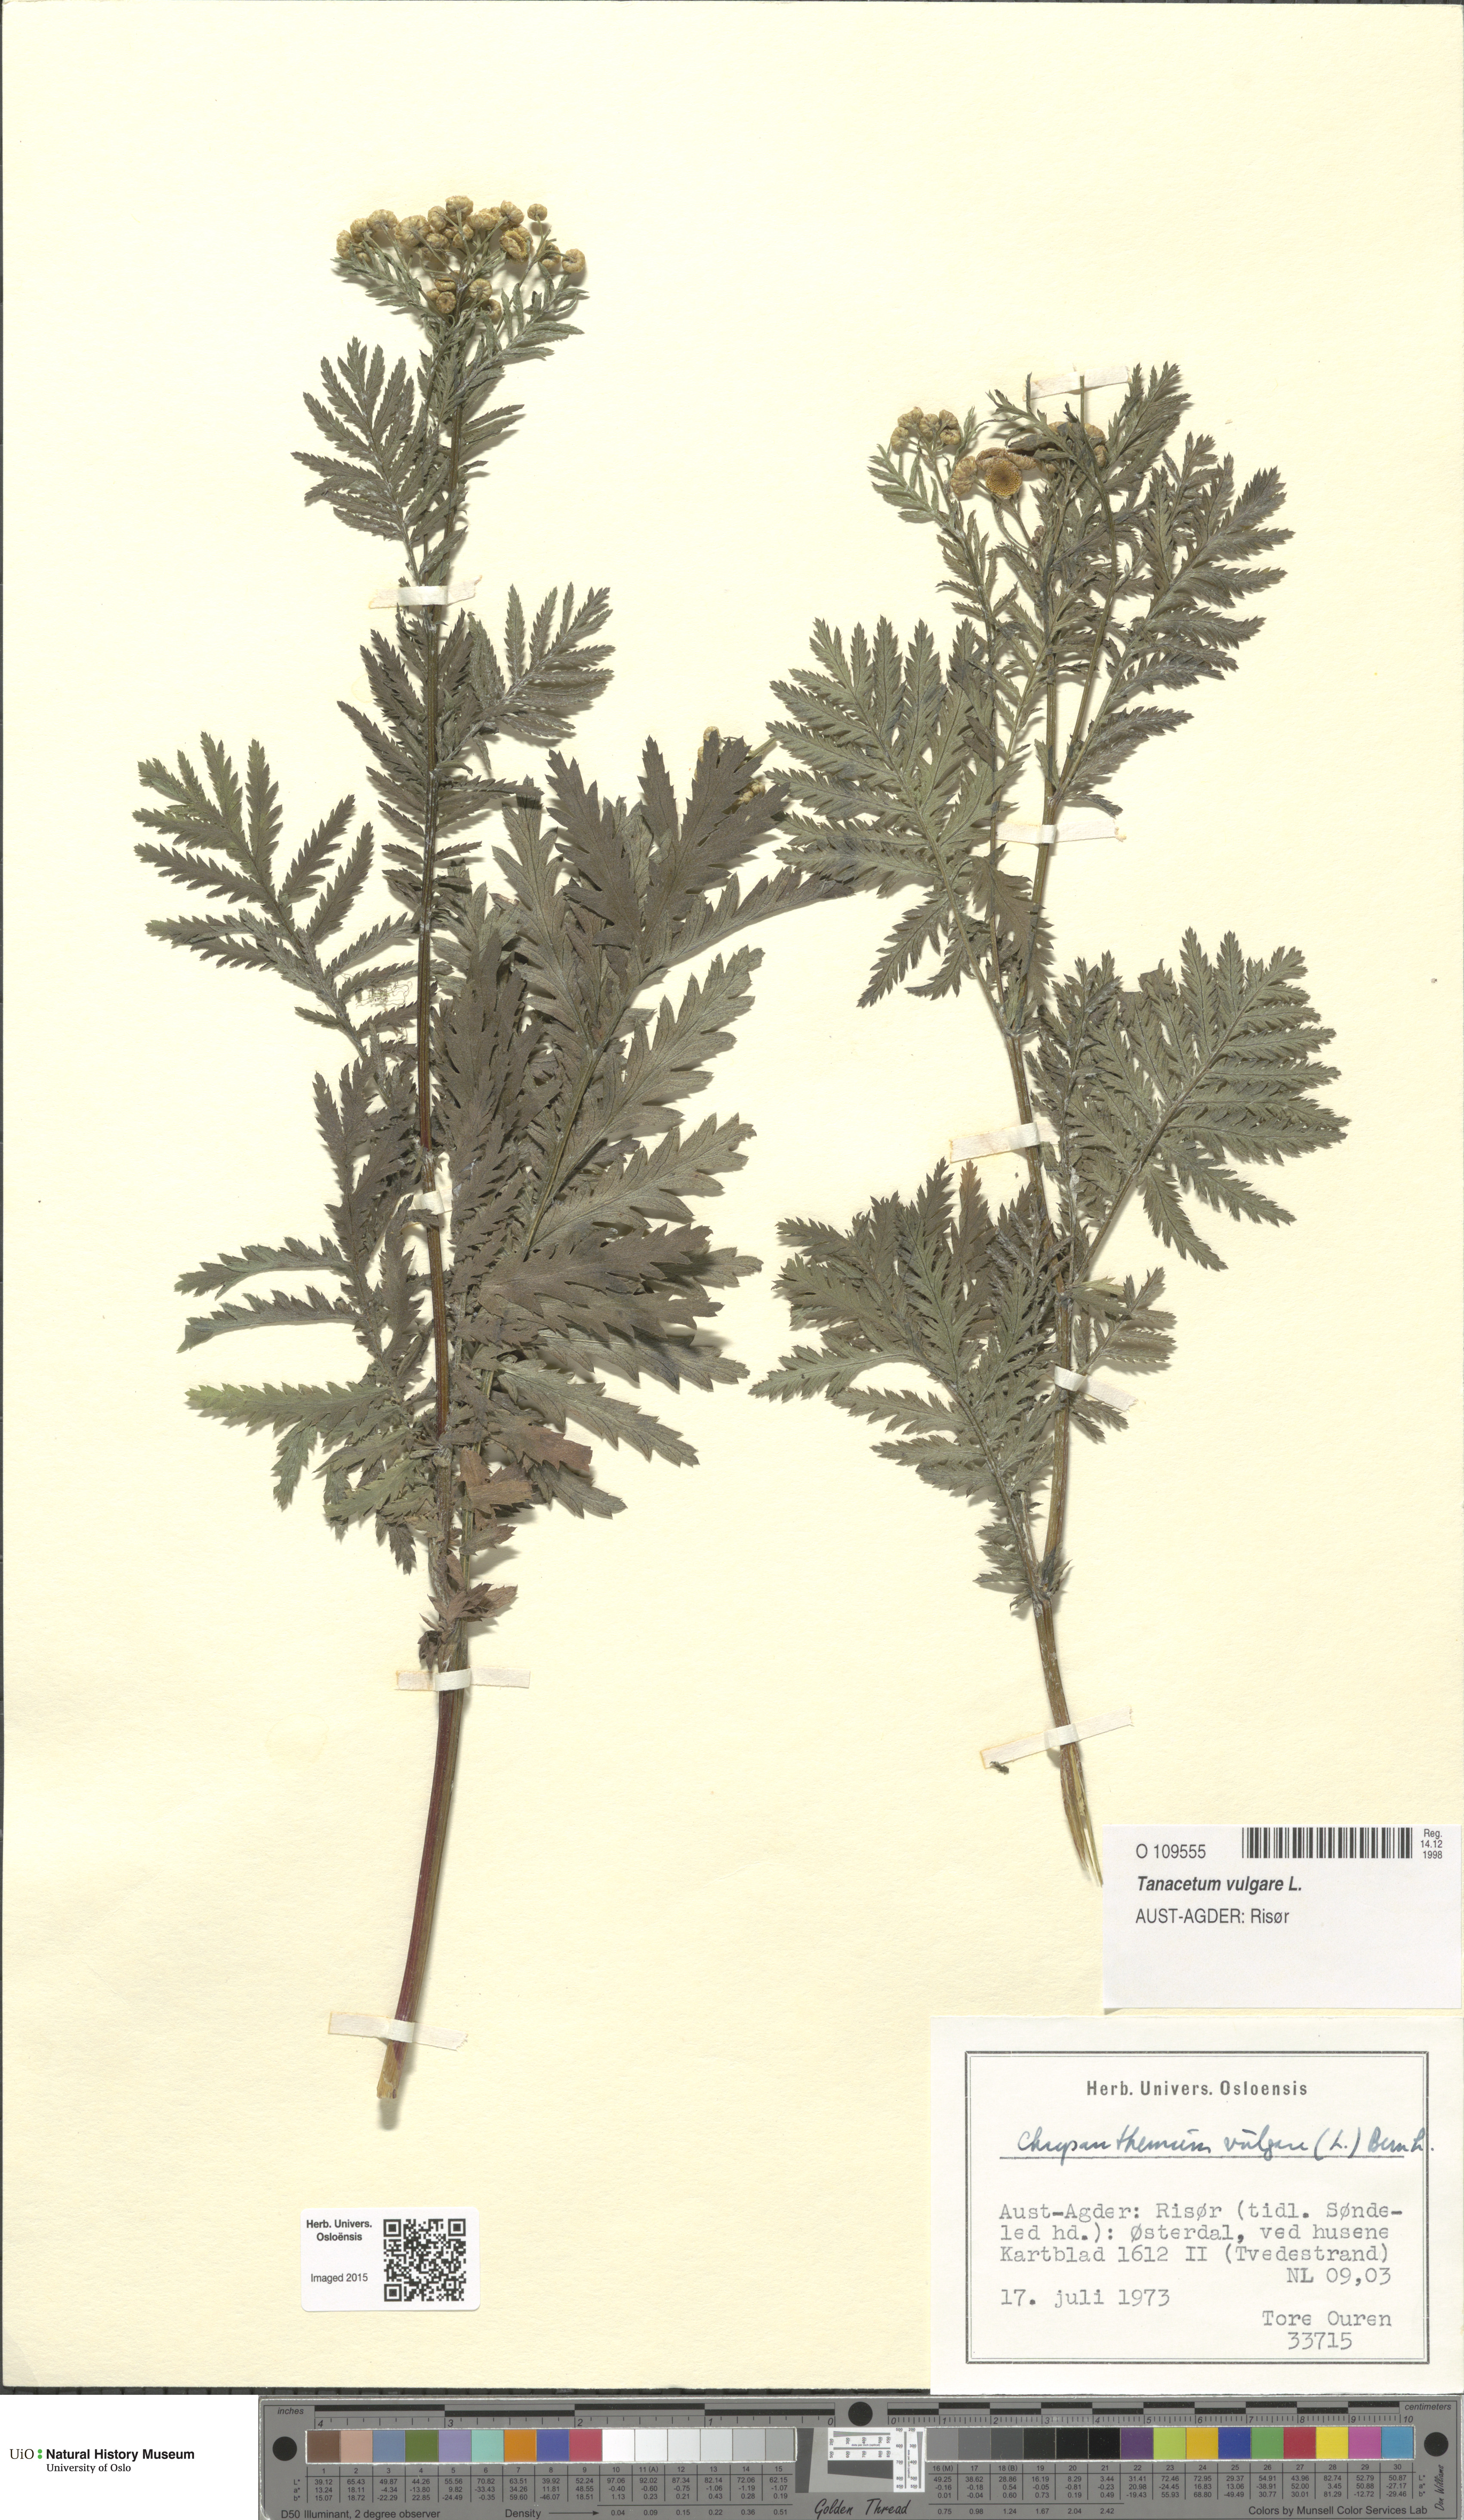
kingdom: Plantae
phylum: Tracheophyta
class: Magnoliopsida
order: Asterales
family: Asteraceae
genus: Tanacetum
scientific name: Tanacetum vulgare
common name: Common tansy
